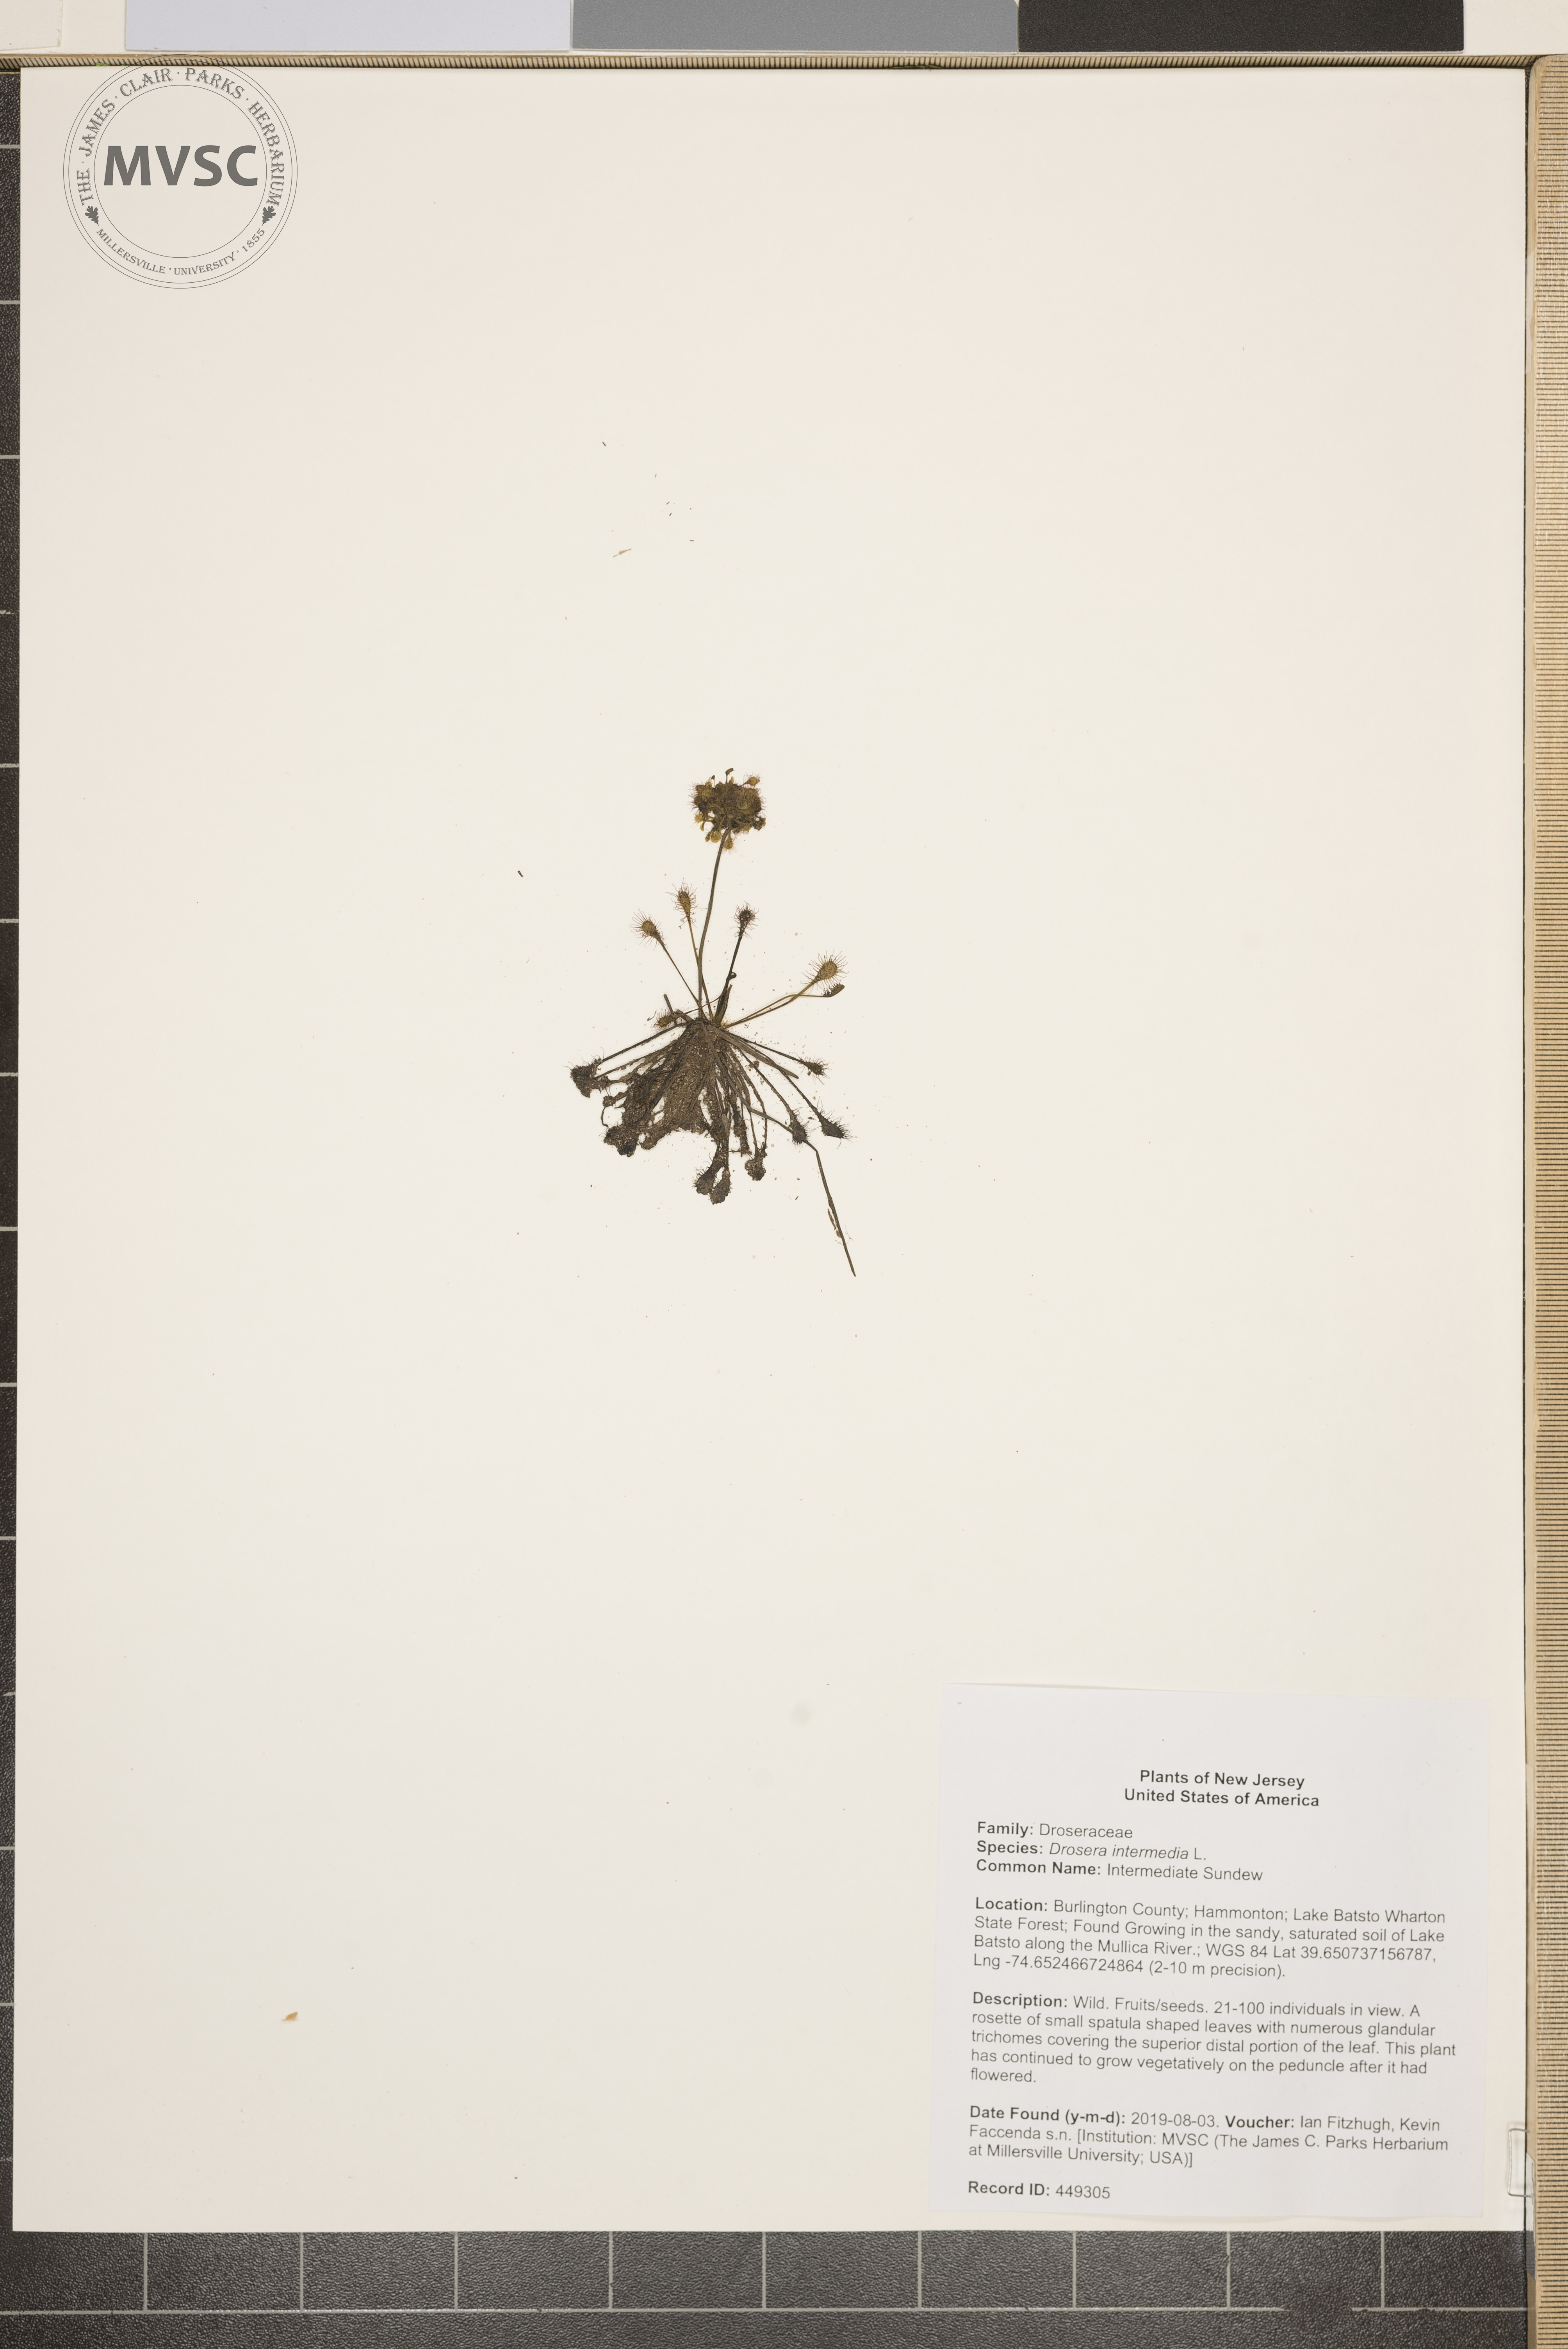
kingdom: Plantae
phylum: Tracheophyta
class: Magnoliopsida
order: Caryophyllales
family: Droseraceae
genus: Drosera
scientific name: Drosera intermedia
